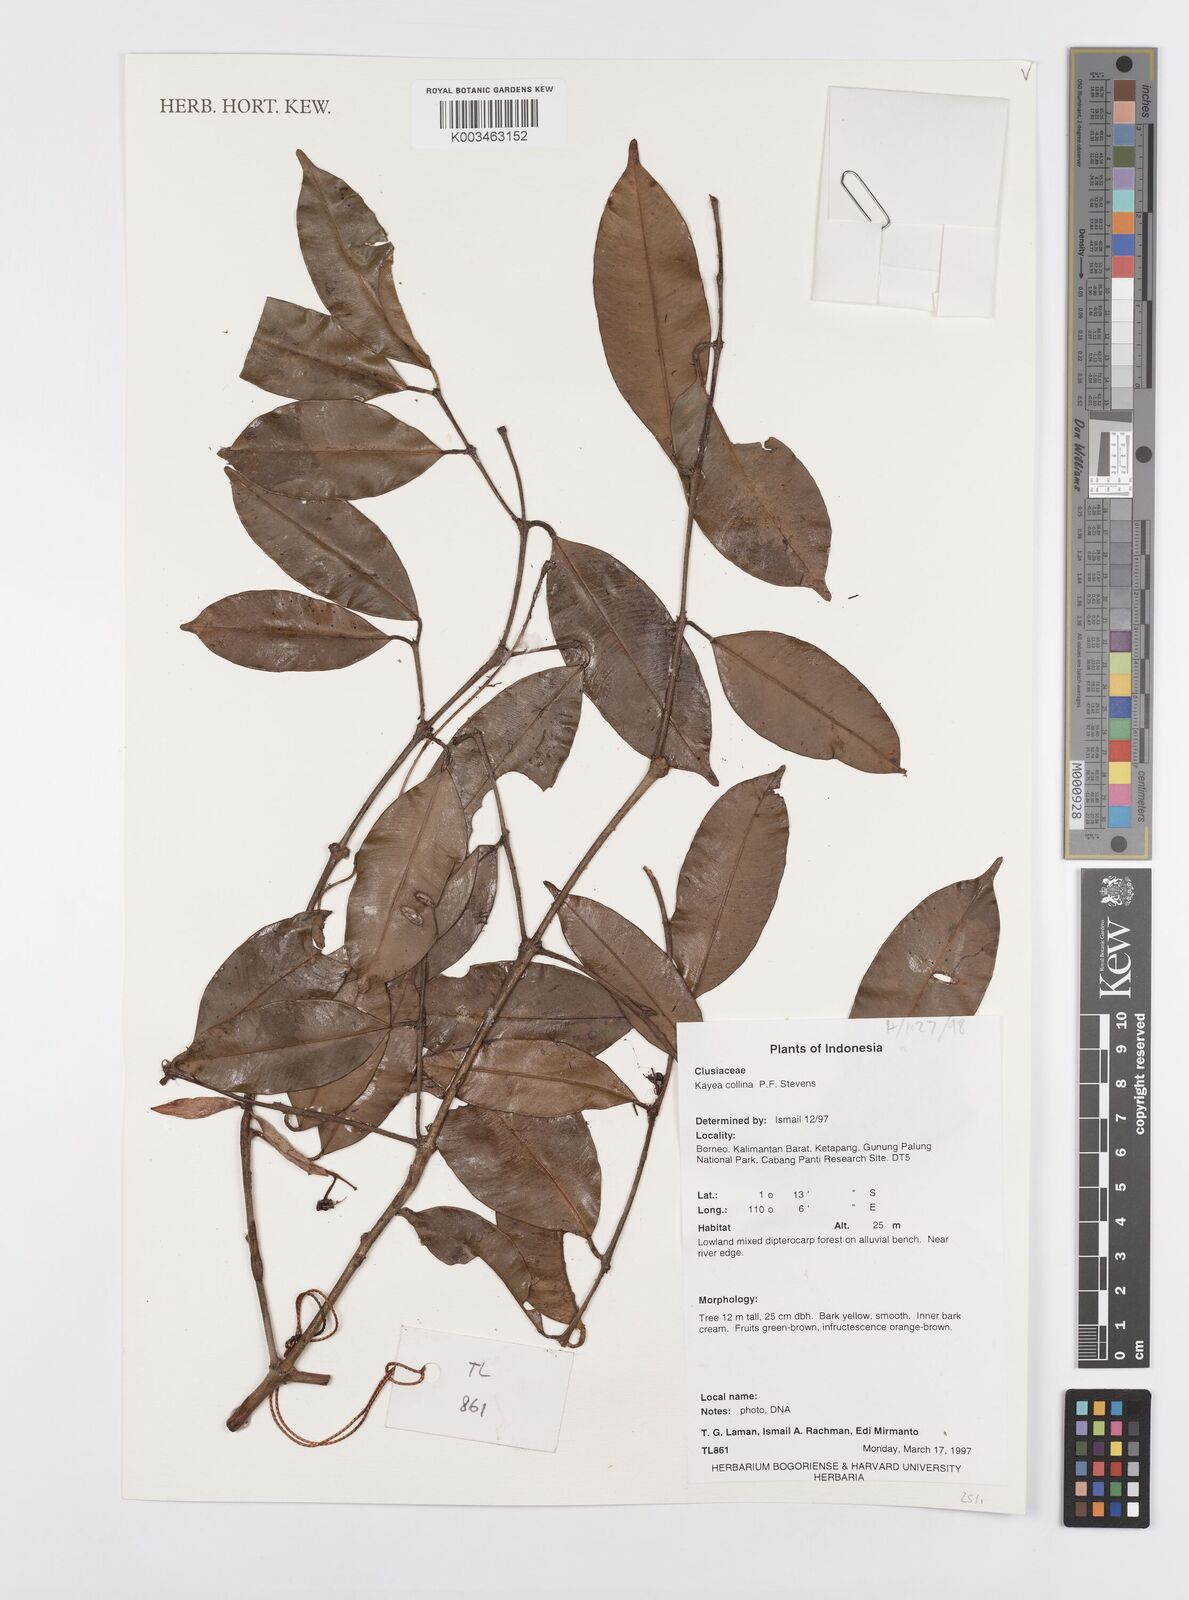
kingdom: Plantae
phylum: Tracheophyta
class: Magnoliopsida
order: Malpighiales
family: Calophyllaceae
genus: Kayea
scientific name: Kayea
